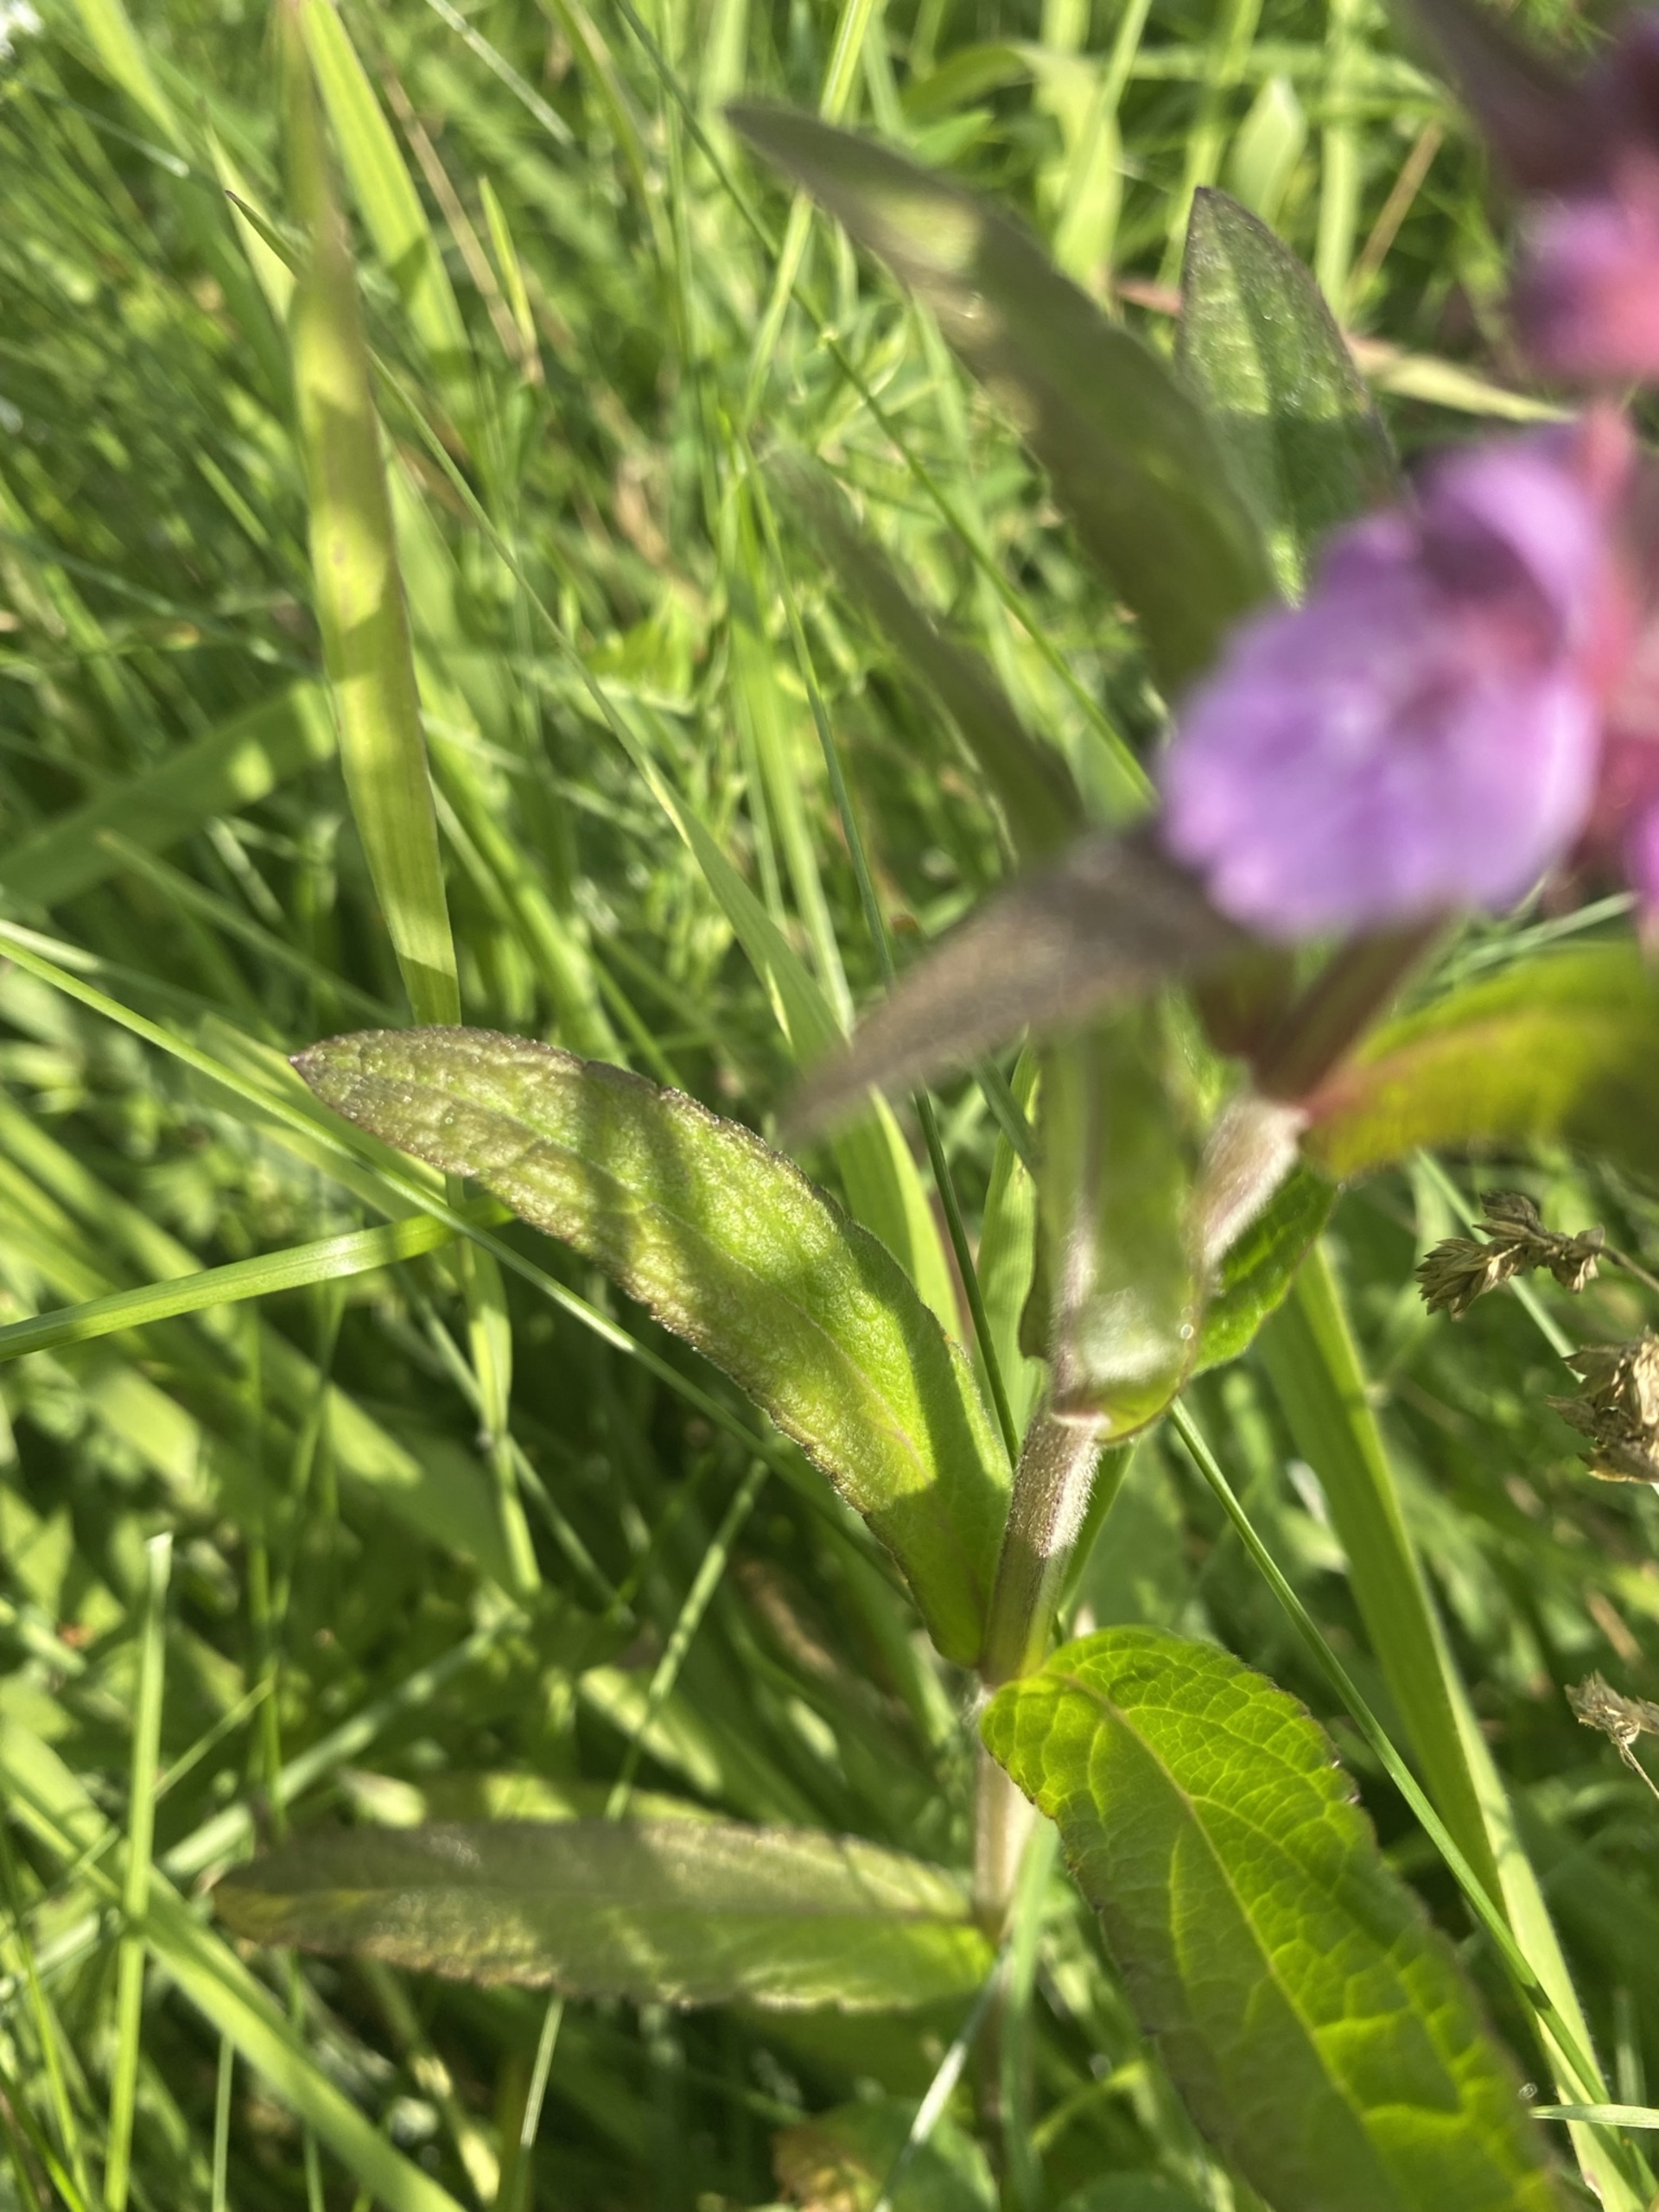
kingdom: Plantae
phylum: Tracheophyta
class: Magnoliopsida
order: Lamiales
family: Lamiaceae
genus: Stachys
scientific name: Stachys palustris
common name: Kær-galtetand
